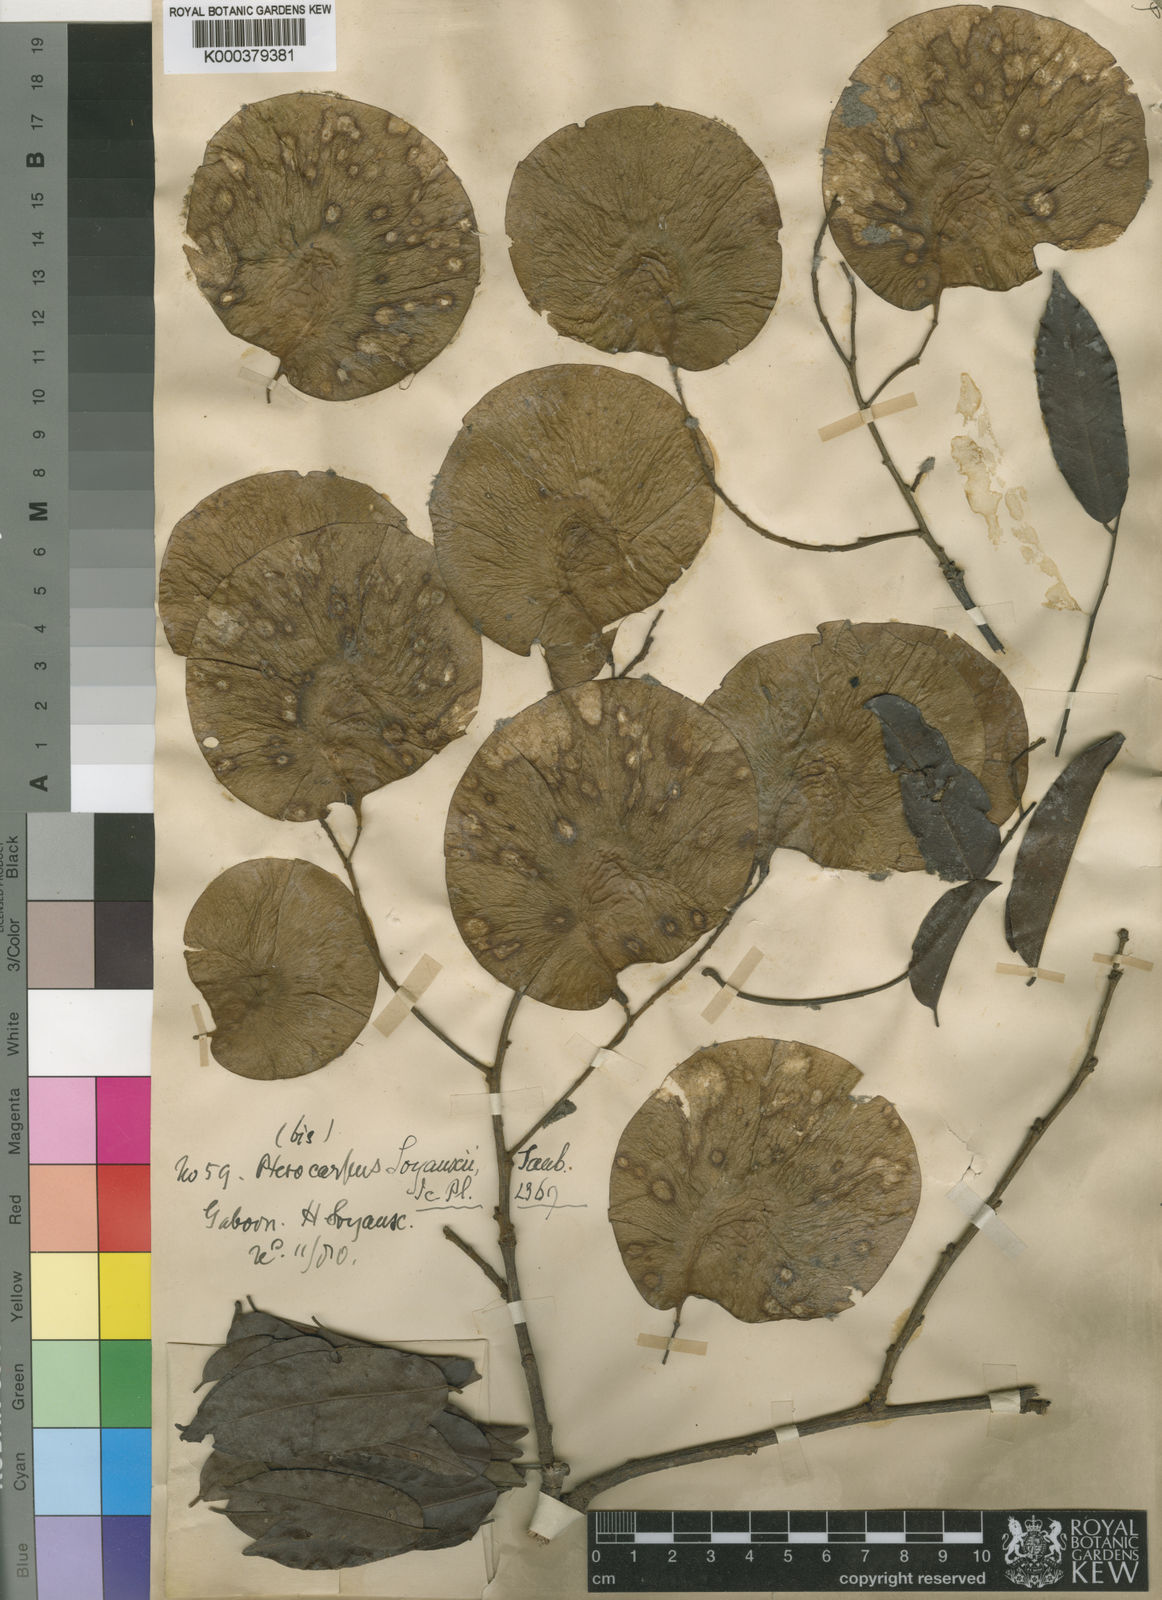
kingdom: Plantae
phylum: Tracheophyta
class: Magnoliopsida
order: Fabales
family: Fabaceae
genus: Pterocarpus
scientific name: Pterocarpus soyauxii
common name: African coralwood
